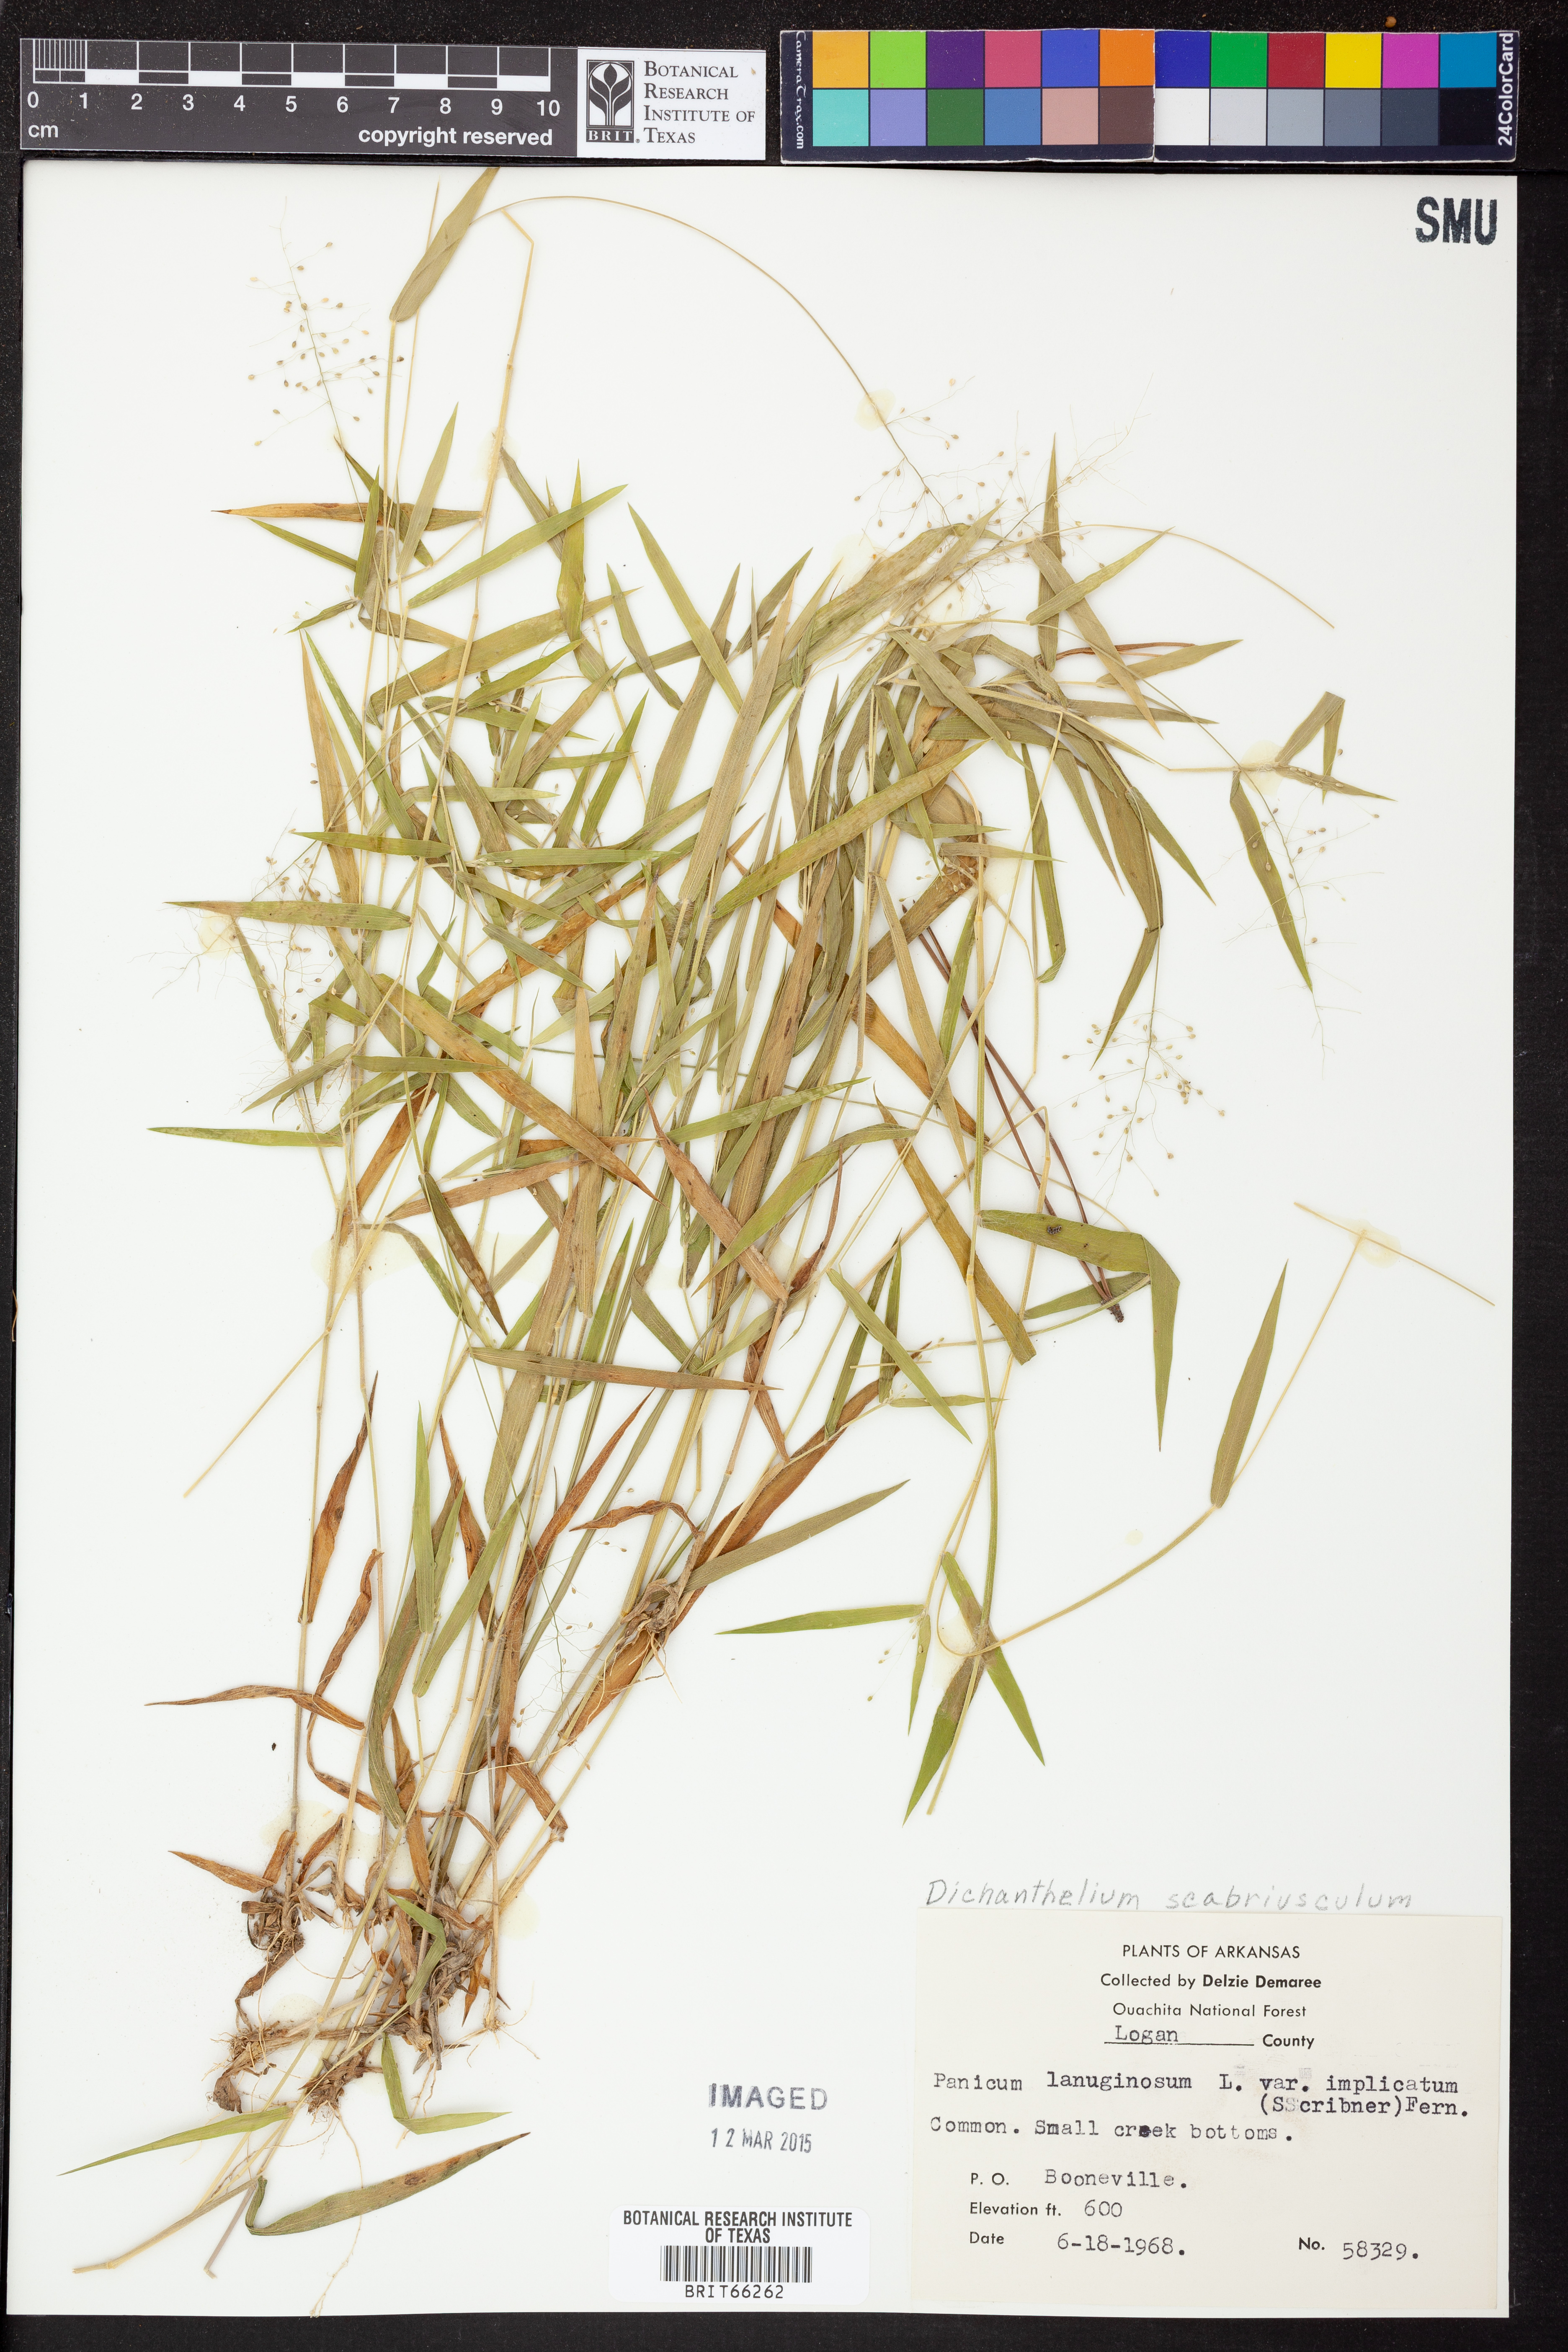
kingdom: Plantae
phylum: Tracheophyta
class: Liliopsida
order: Poales
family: Poaceae
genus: Dichanthelium
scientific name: Dichanthelium implicatum
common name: Slender-stemmed panicgrass
